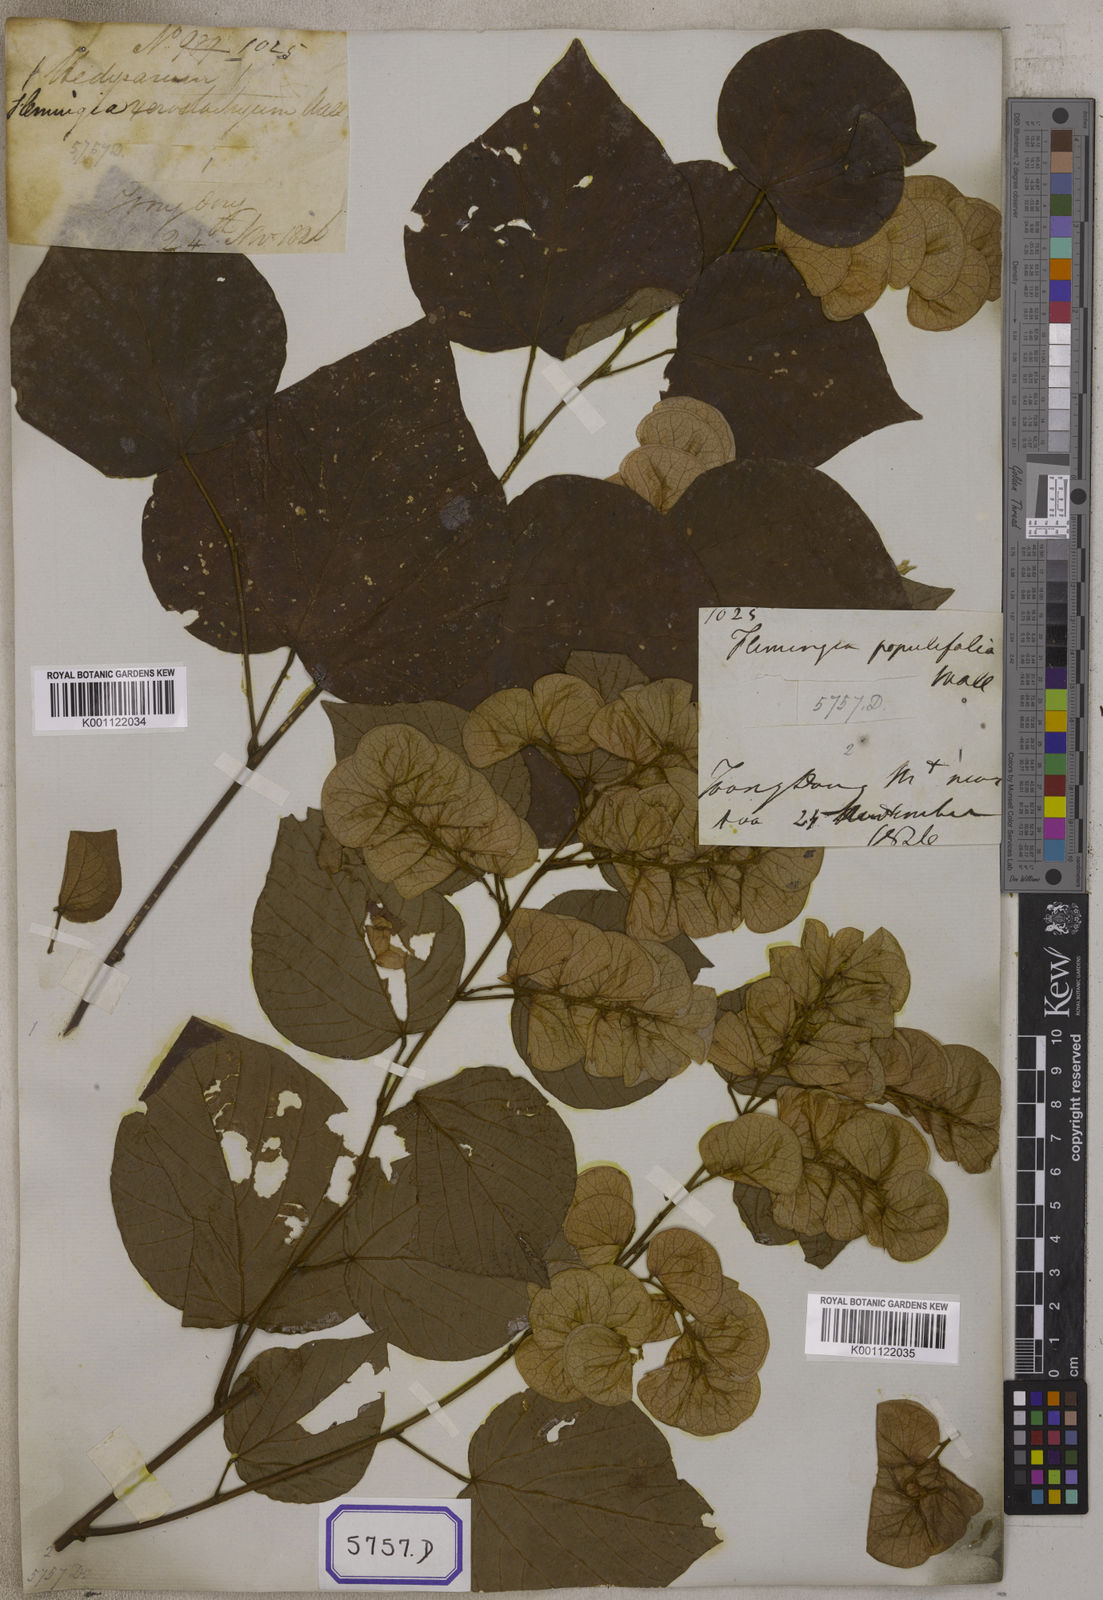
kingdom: Plantae
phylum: Tracheophyta
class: Magnoliopsida
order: Fabales
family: Fabaceae
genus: Flemingia
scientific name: Flemingia
